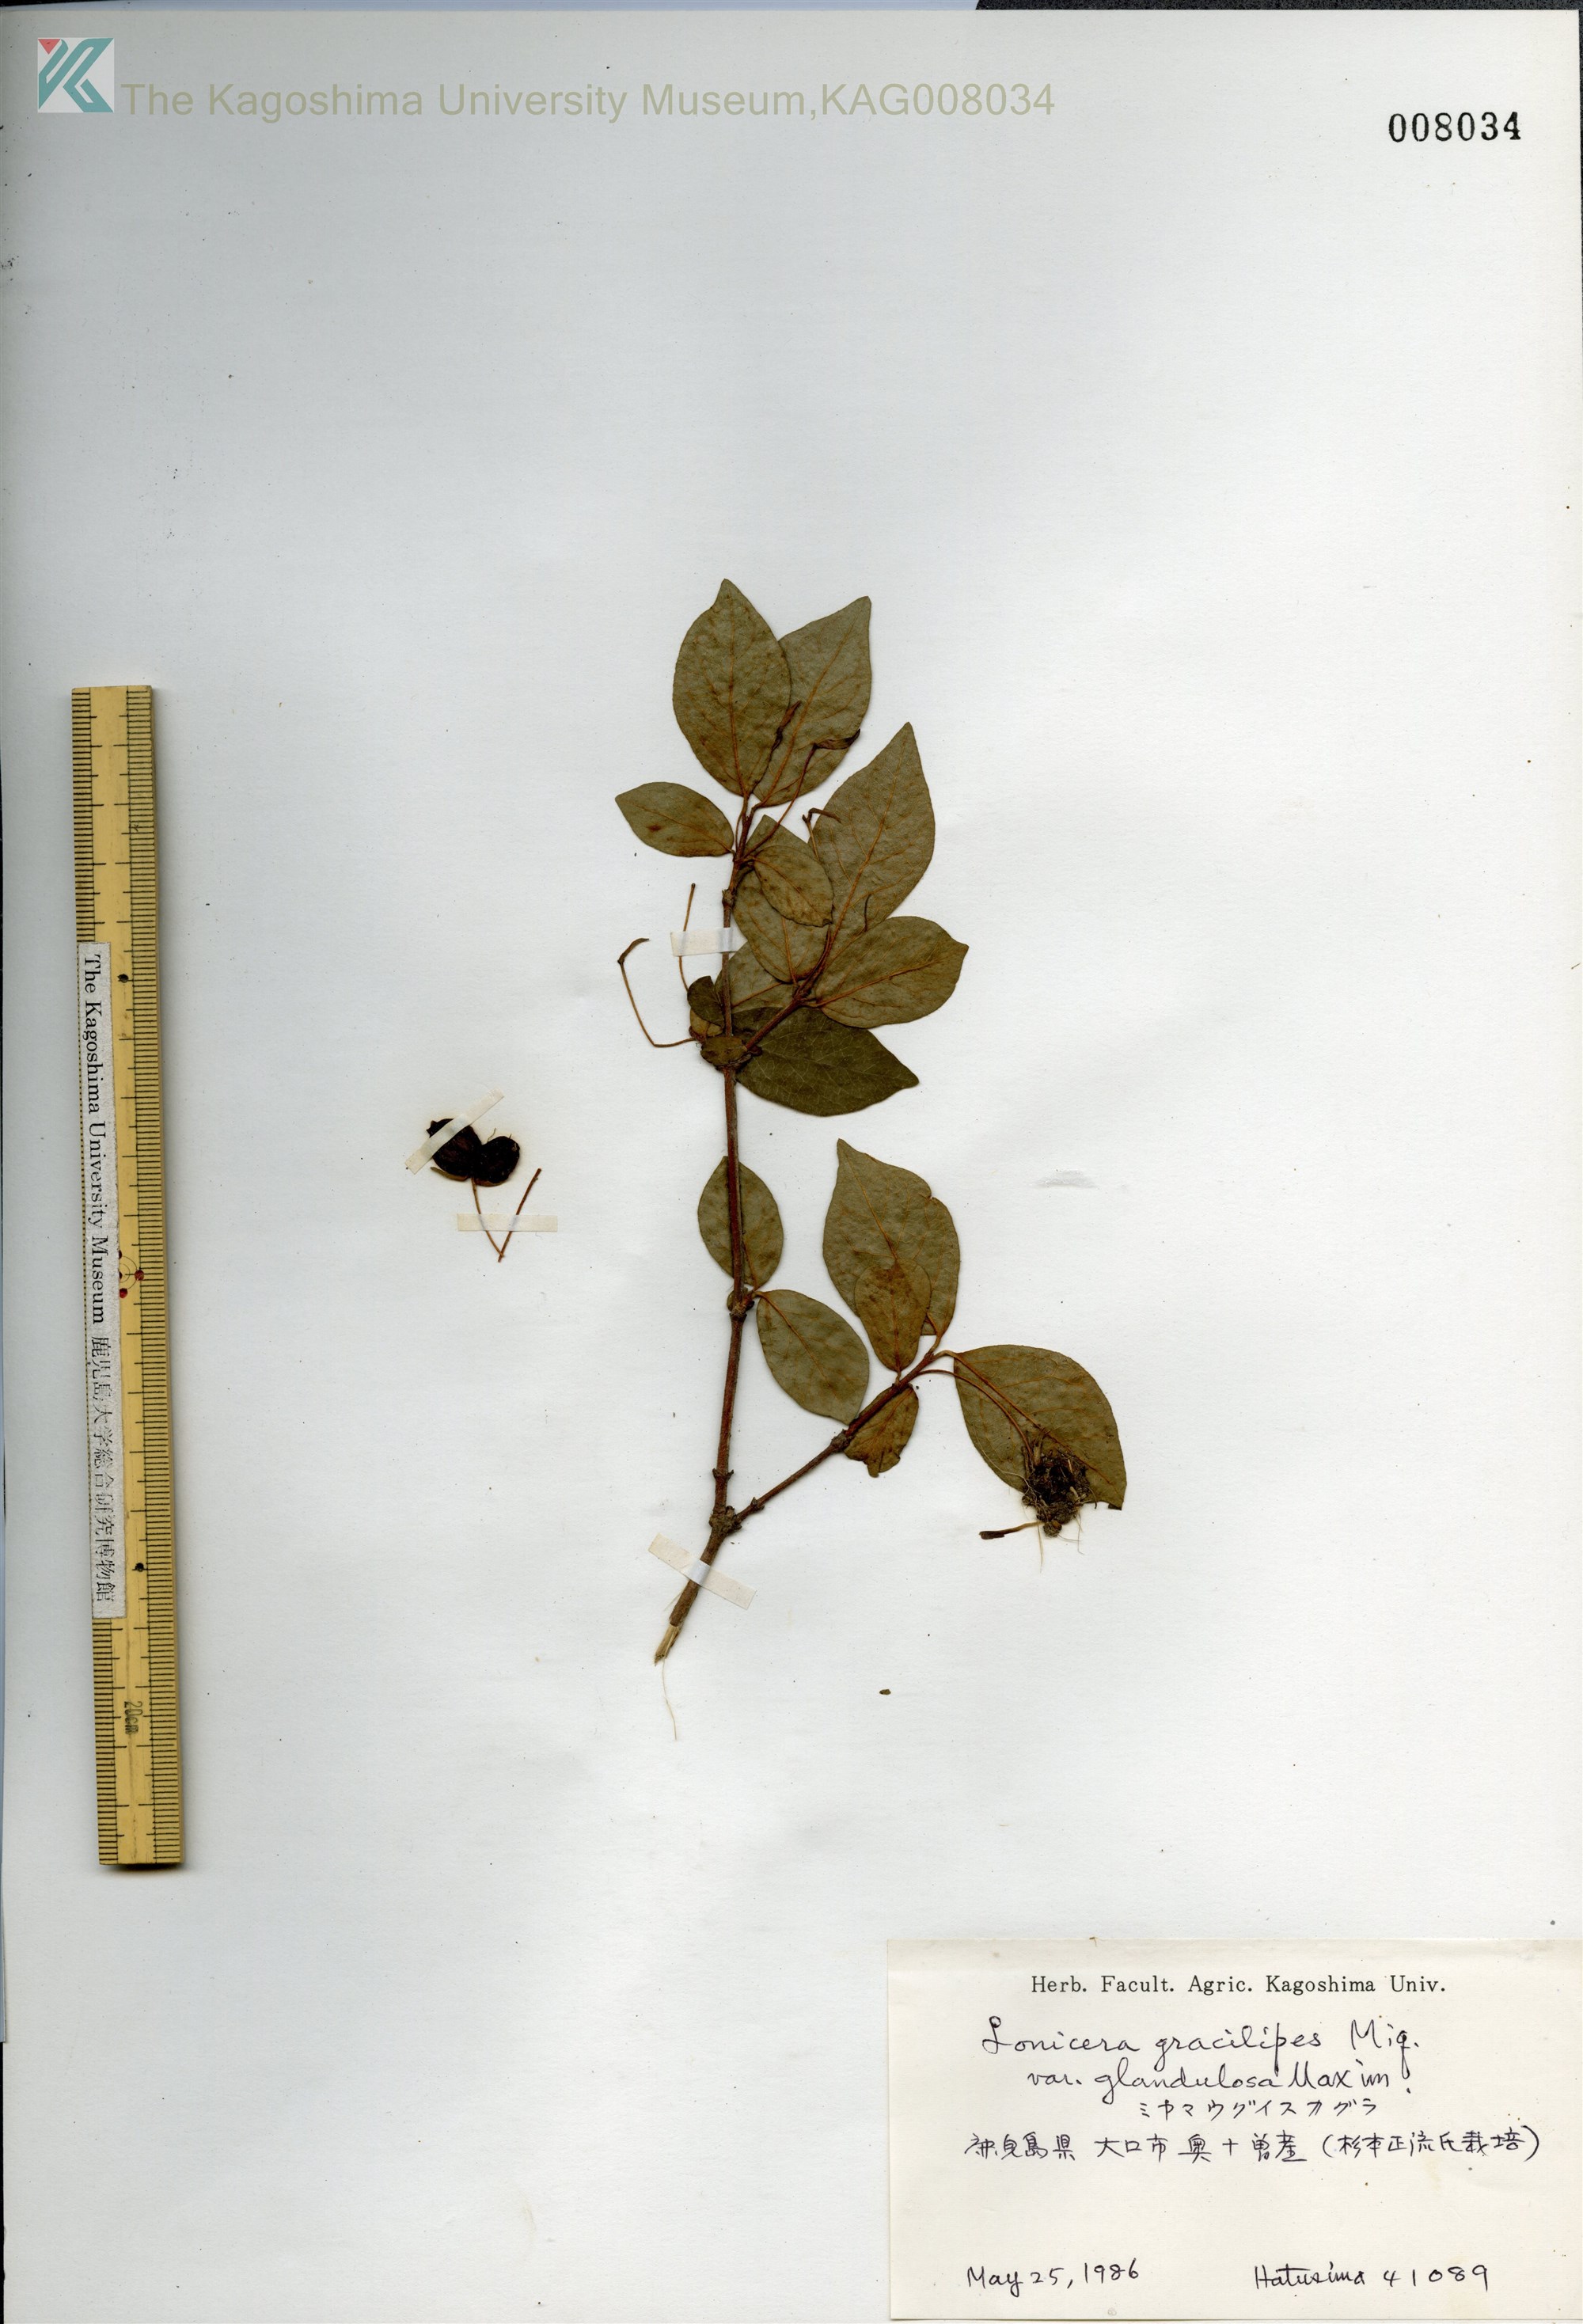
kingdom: Plantae
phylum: Tracheophyta
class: Magnoliopsida
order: Dipsacales
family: Caprifoliaceae
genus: Lonicera
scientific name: Lonicera gracilipes
